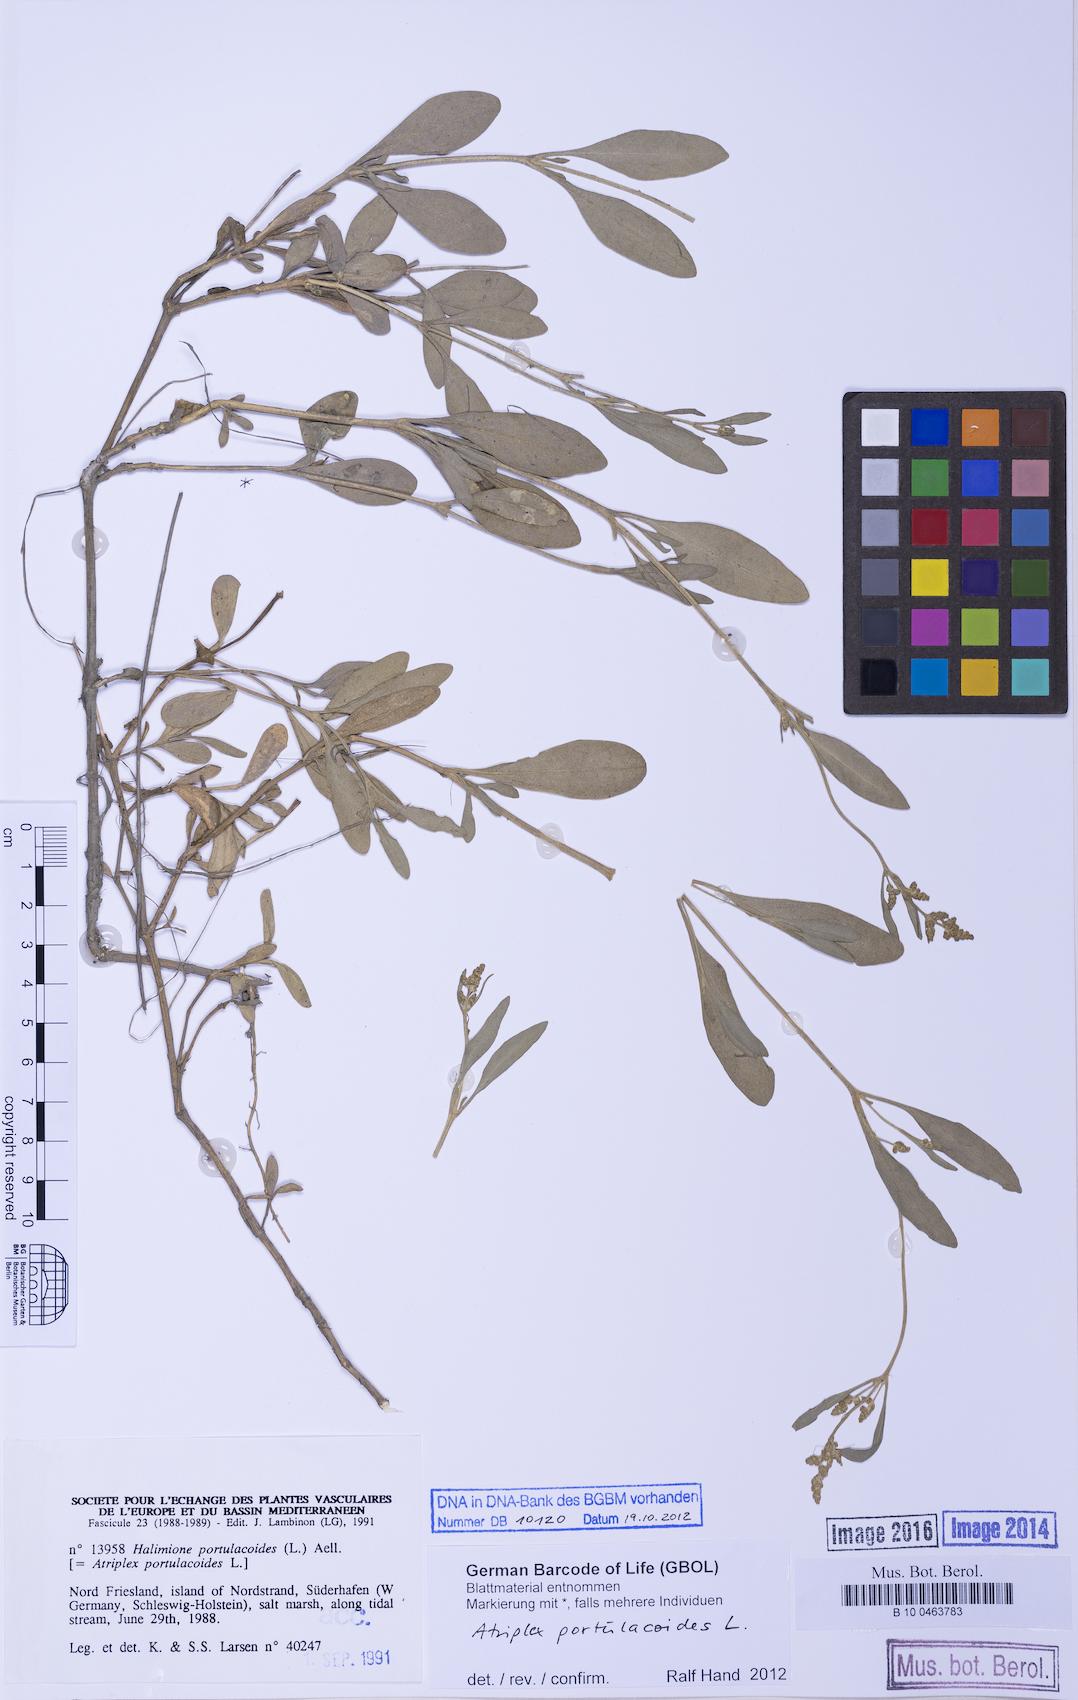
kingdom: Plantae
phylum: Tracheophyta
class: Magnoliopsida
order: Caryophyllales
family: Amaranthaceae
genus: Halimione
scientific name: Halimione portulacoides
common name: Sea-purslane
